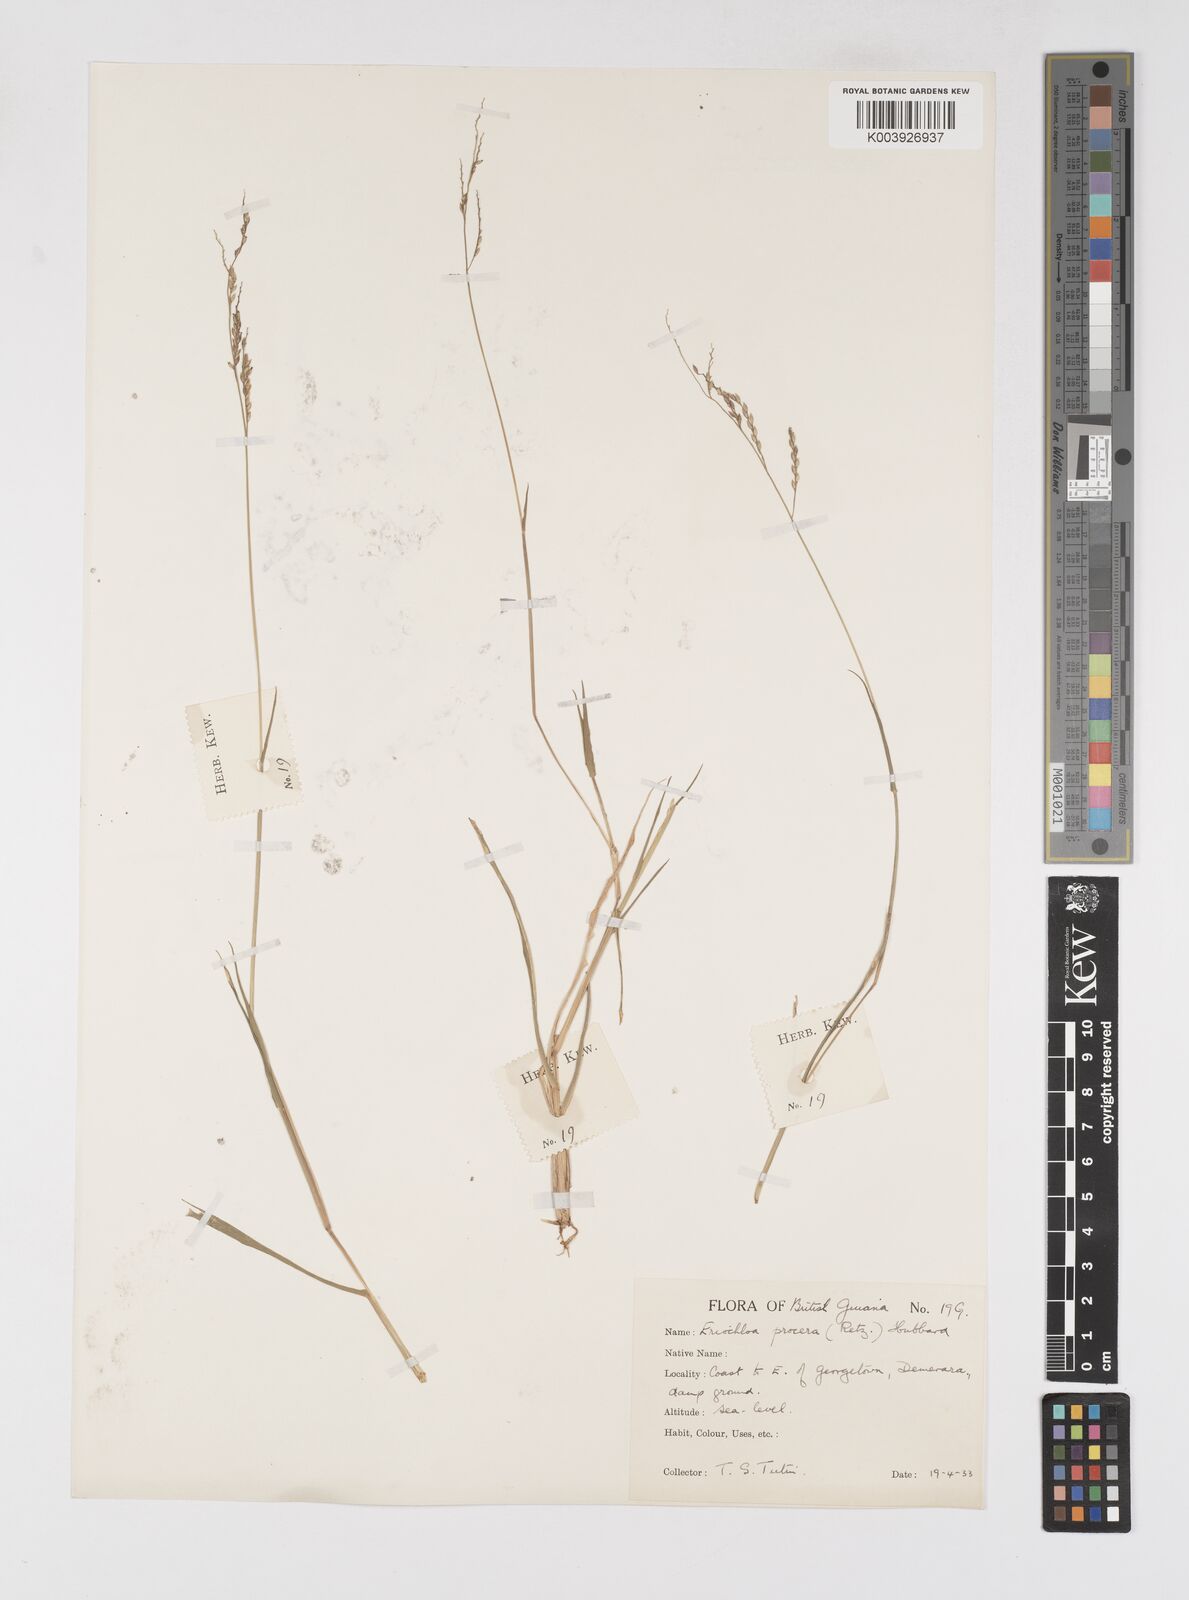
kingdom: Plantae
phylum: Tracheophyta
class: Liliopsida
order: Poales
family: Poaceae
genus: Eriochloa
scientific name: Eriochloa procera
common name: Spring grass
